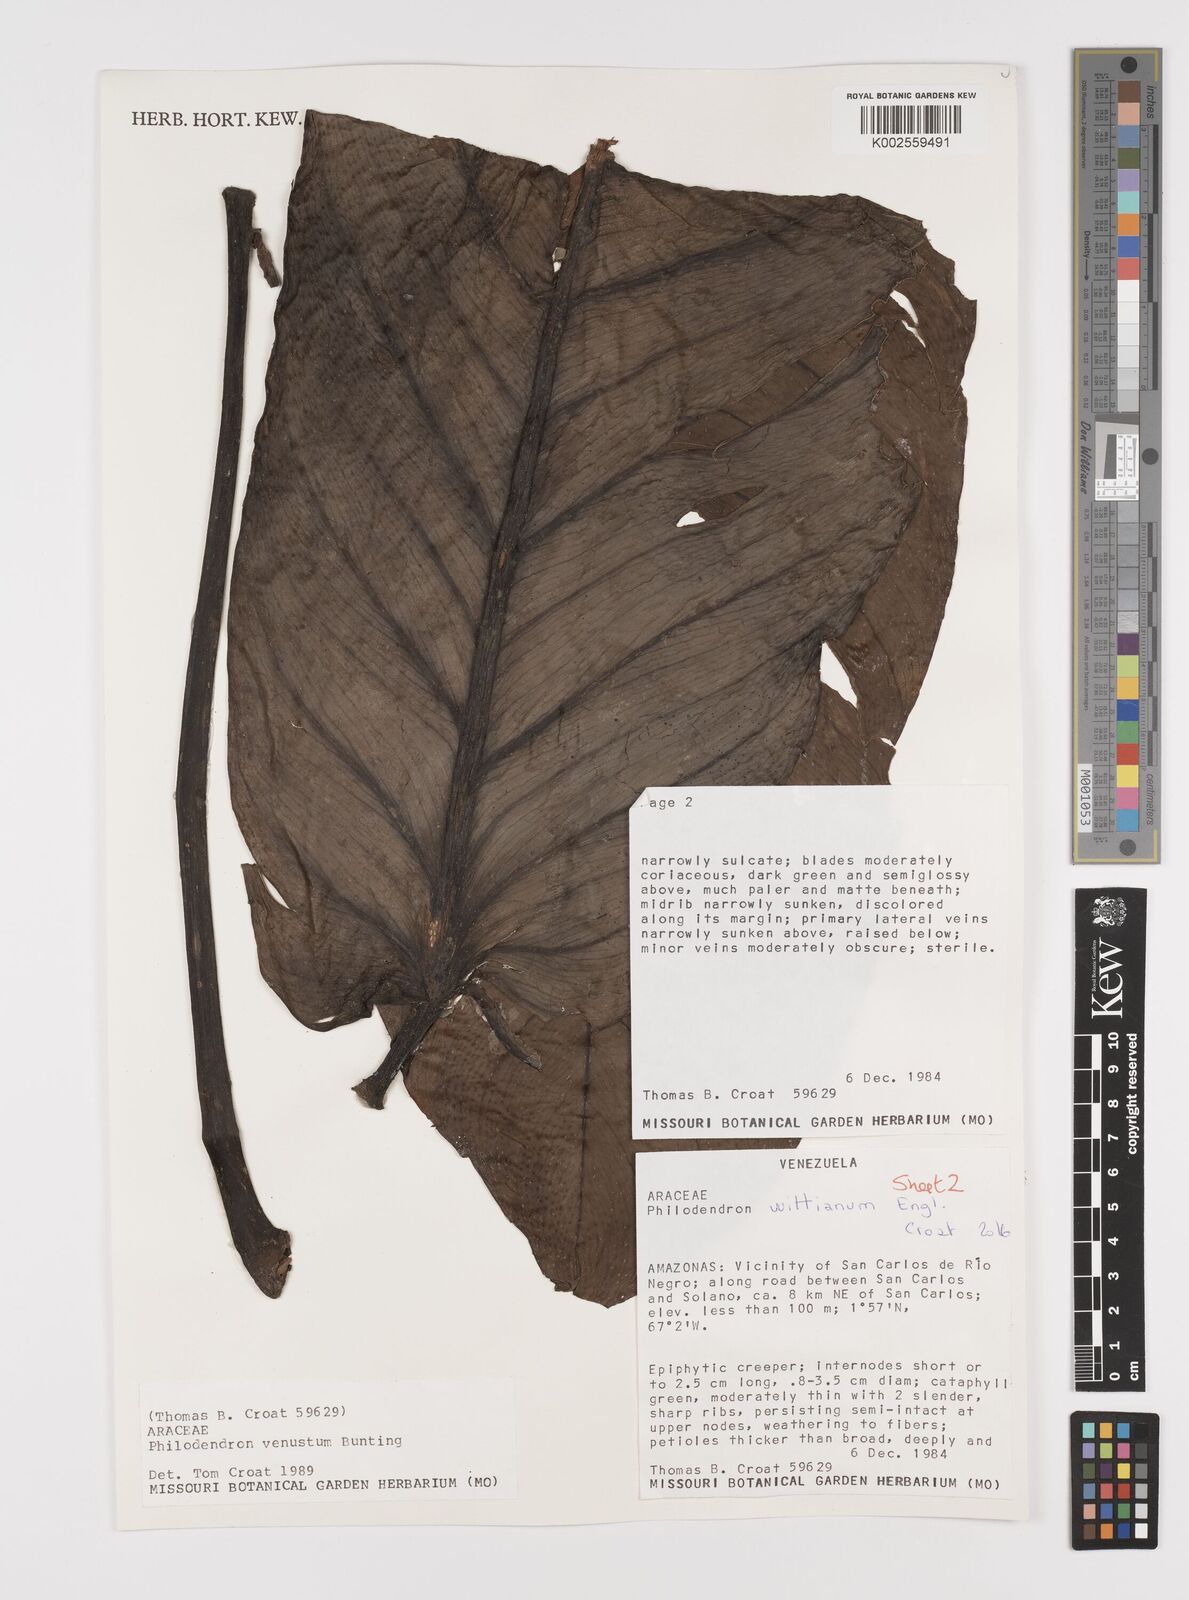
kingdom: Plantae
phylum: Tracheophyta
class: Liliopsida
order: Alismatales
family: Araceae
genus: Philodendron
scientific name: Philodendron wittianum
